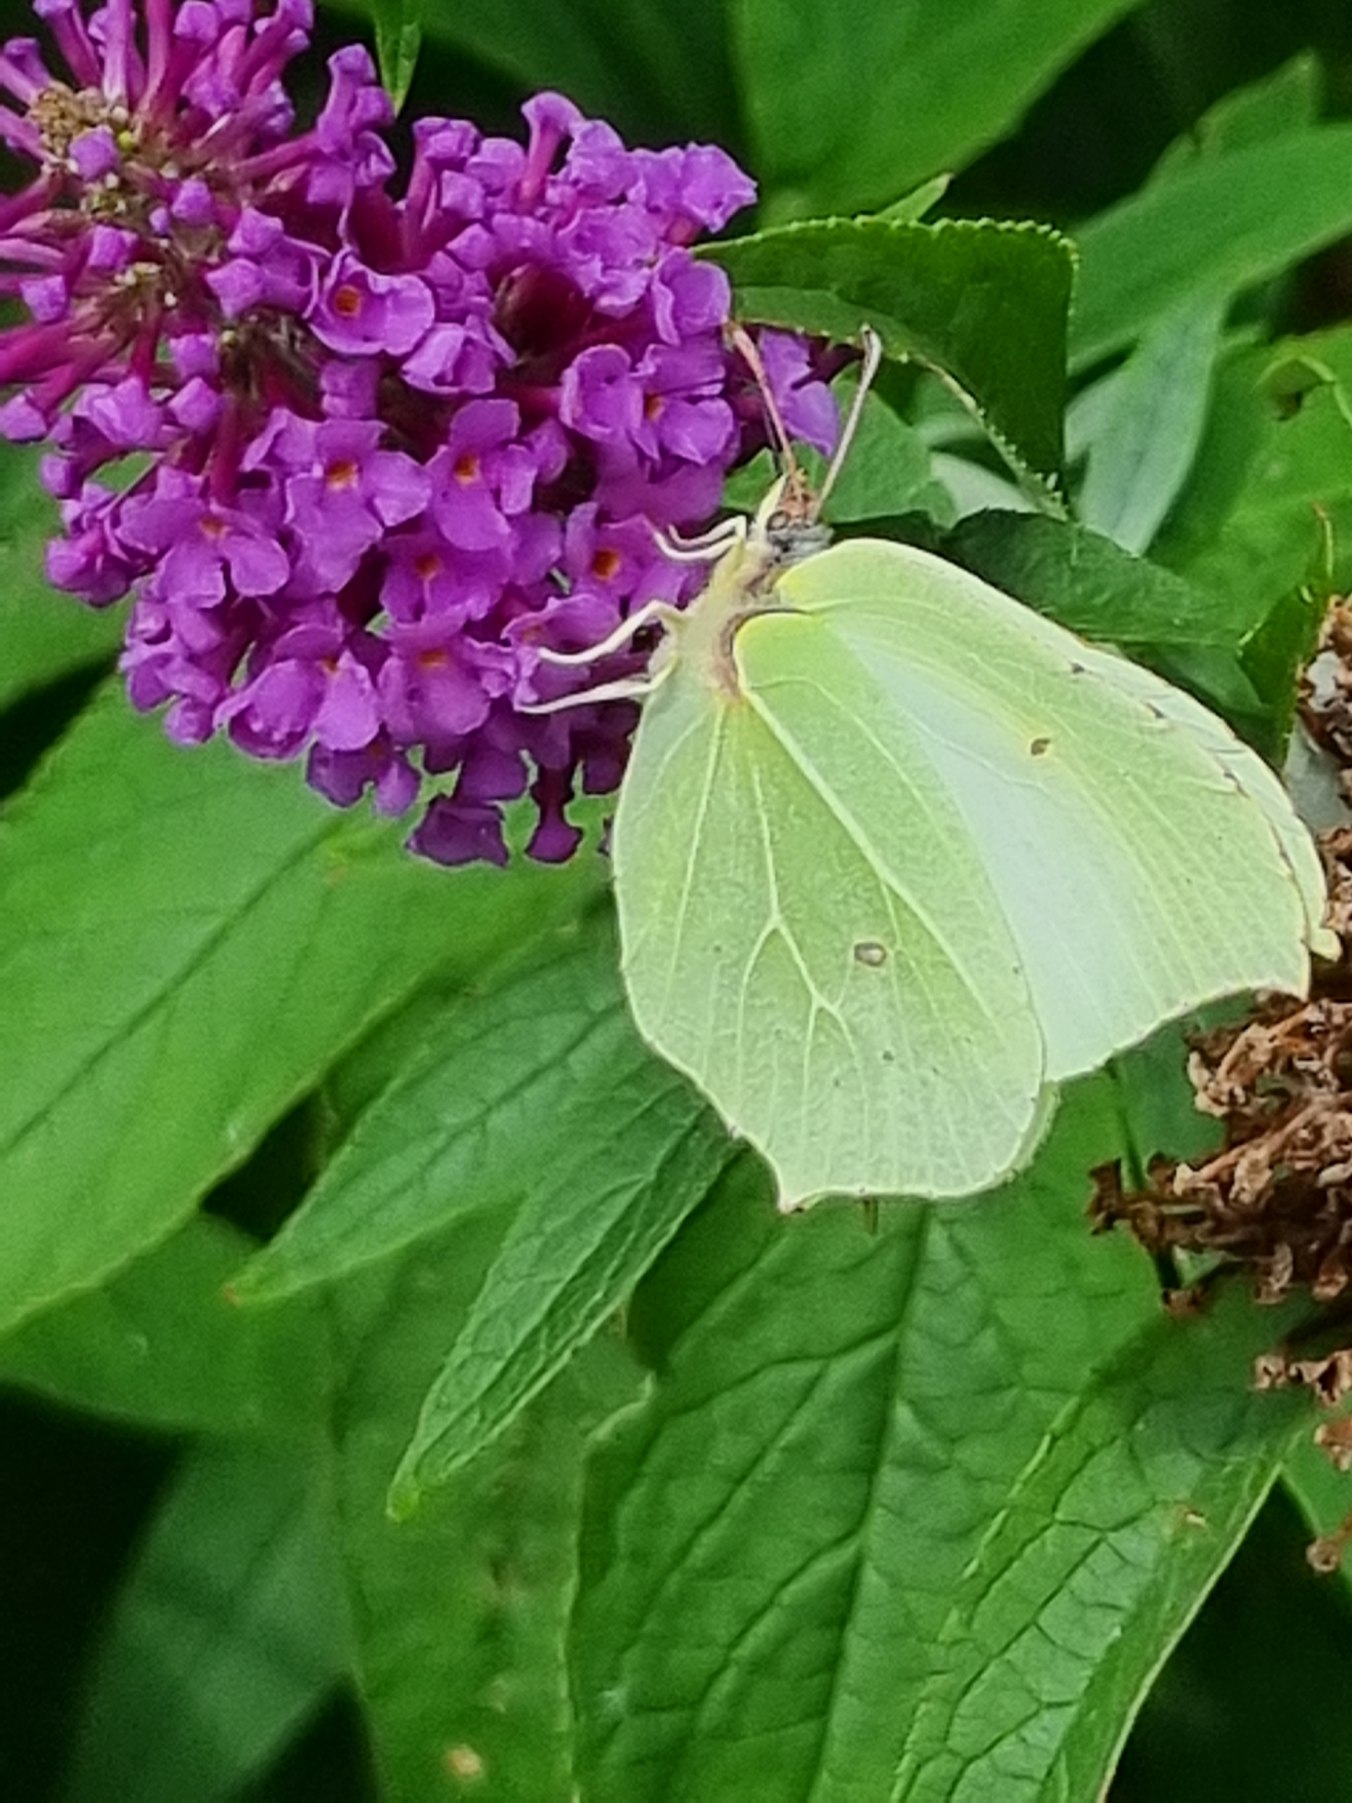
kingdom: Animalia
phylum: Arthropoda
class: Insecta
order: Lepidoptera
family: Pieridae
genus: Gonepteryx
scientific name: Gonepteryx rhamni
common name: Citronsommerfugl
